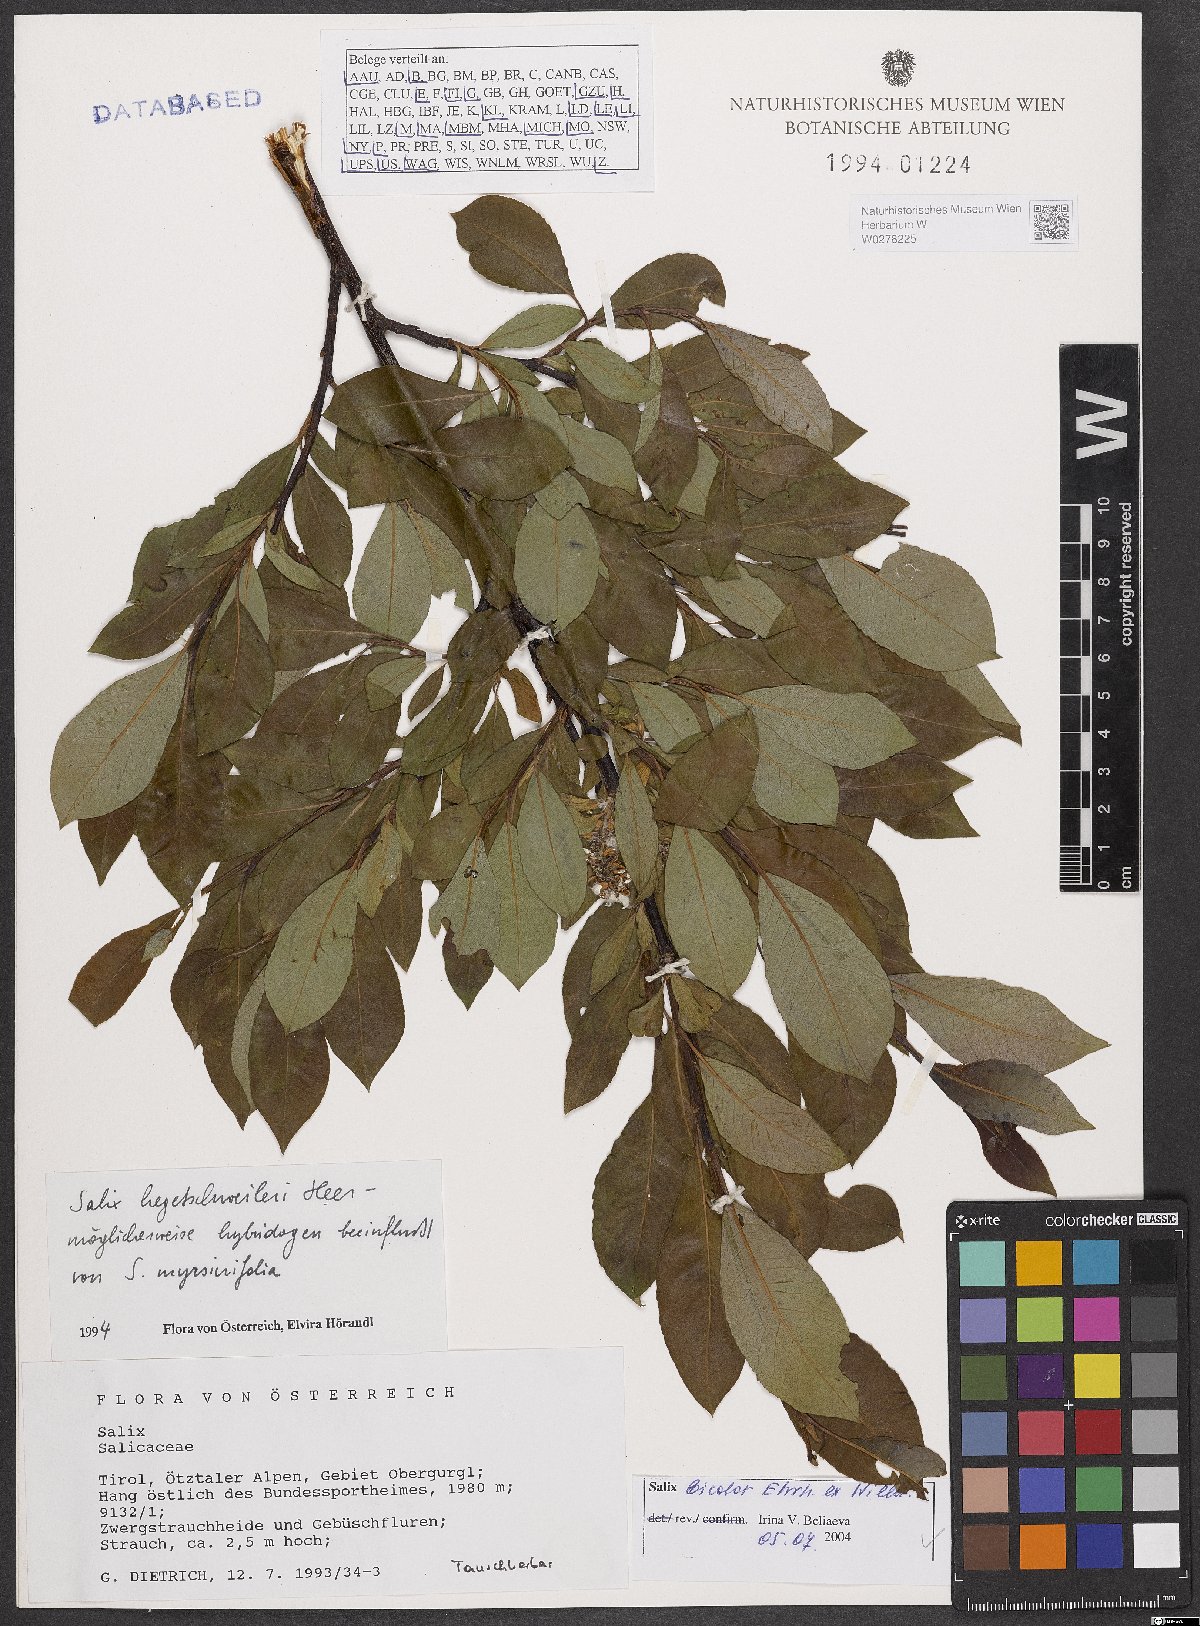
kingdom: Plantae
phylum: Tracheophyta
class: Magnoliopsida
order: Malpighiales
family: Salicaceae
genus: Salix
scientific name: Salix bicolor
